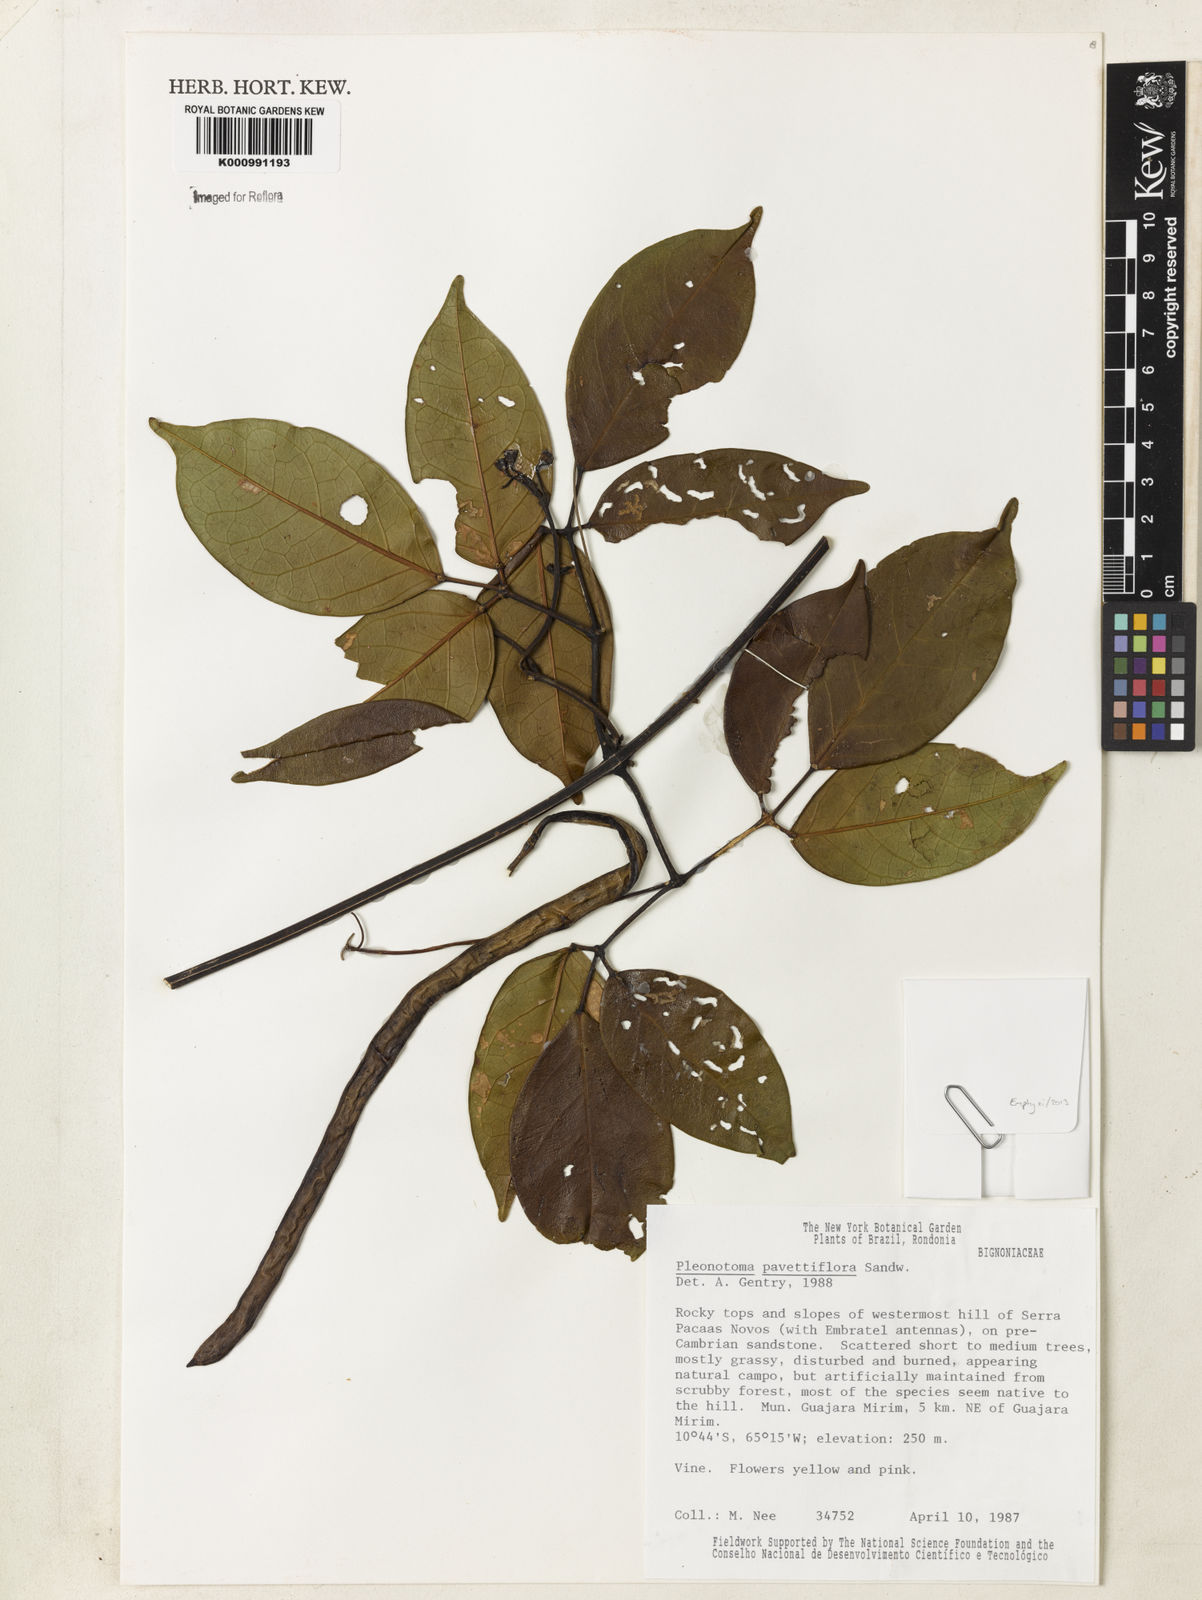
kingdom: Plantae
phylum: Tracheophyta
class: Magnoliopsida
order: Lamiales
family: Bignoniaceae
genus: Pleonotoma
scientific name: Pleonotoma pavettiflora
